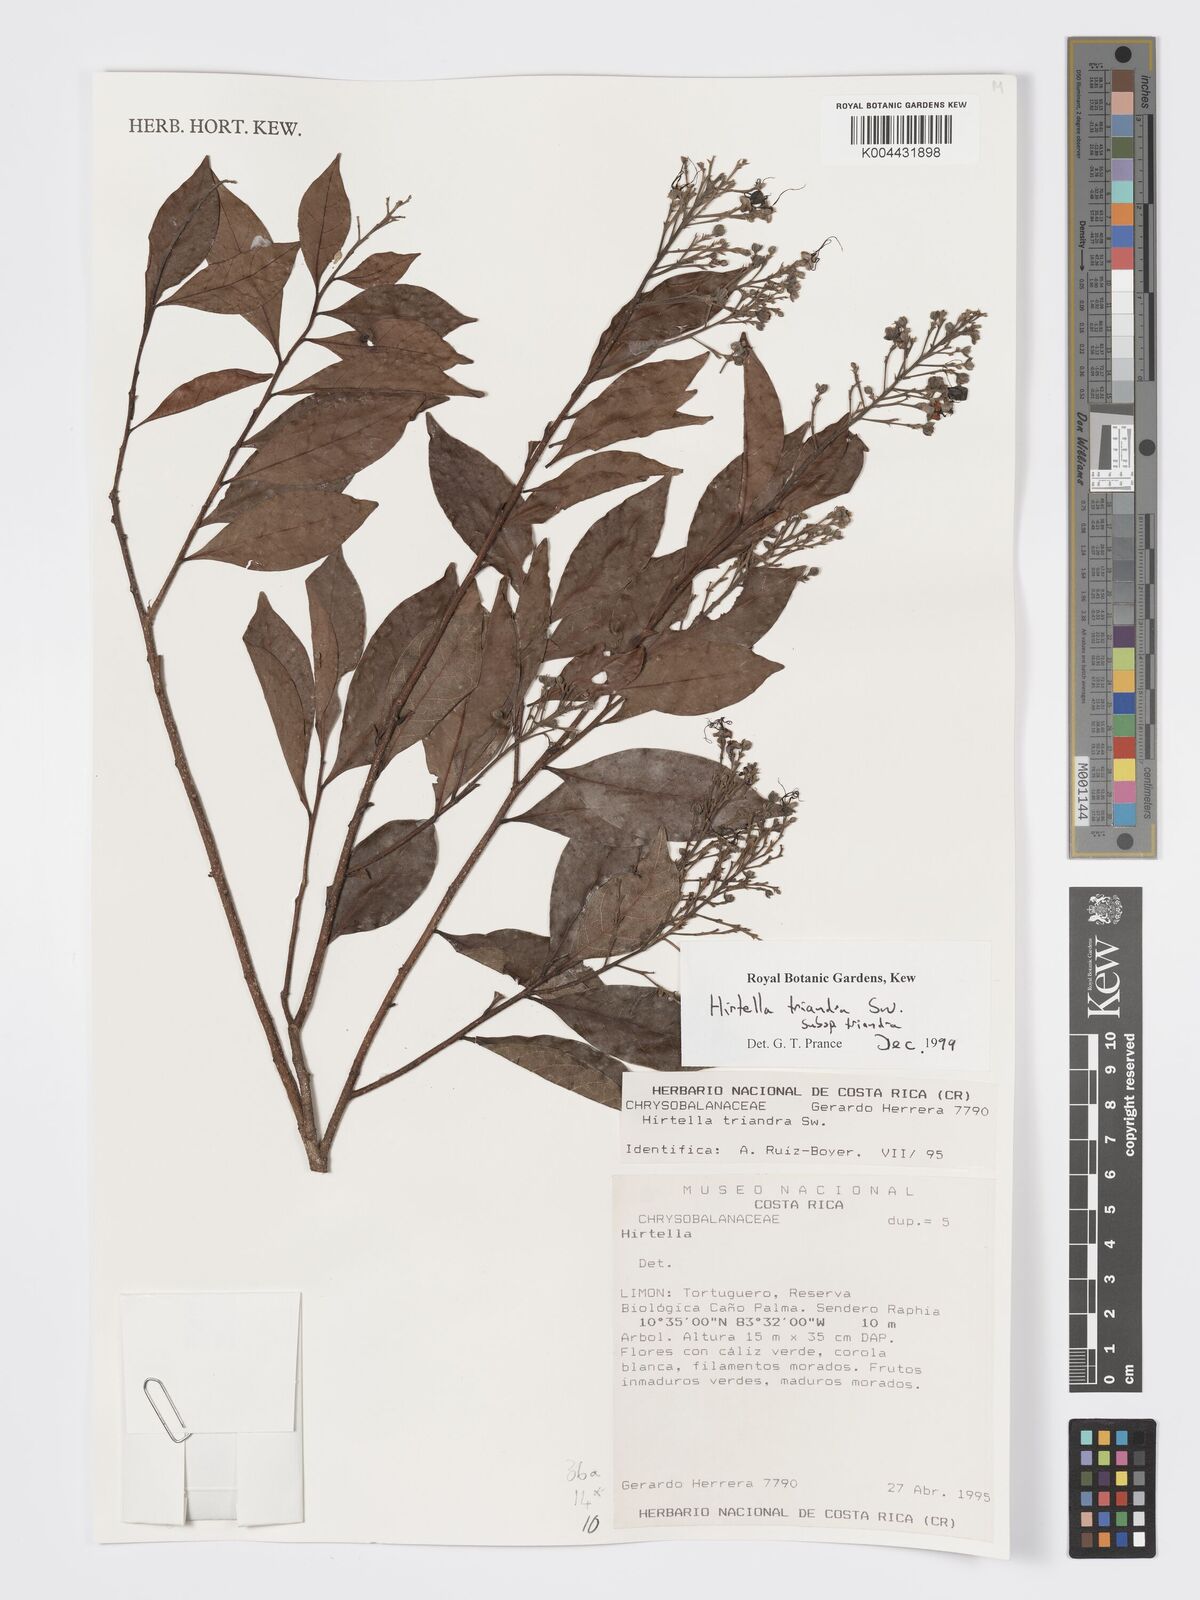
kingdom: Plantae
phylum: Tracheophyta
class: Magnoliopsida
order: Malpighiales
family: Chrysobalanaceae
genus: Hirtella
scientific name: Hirtella triandra
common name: Hairy plum
